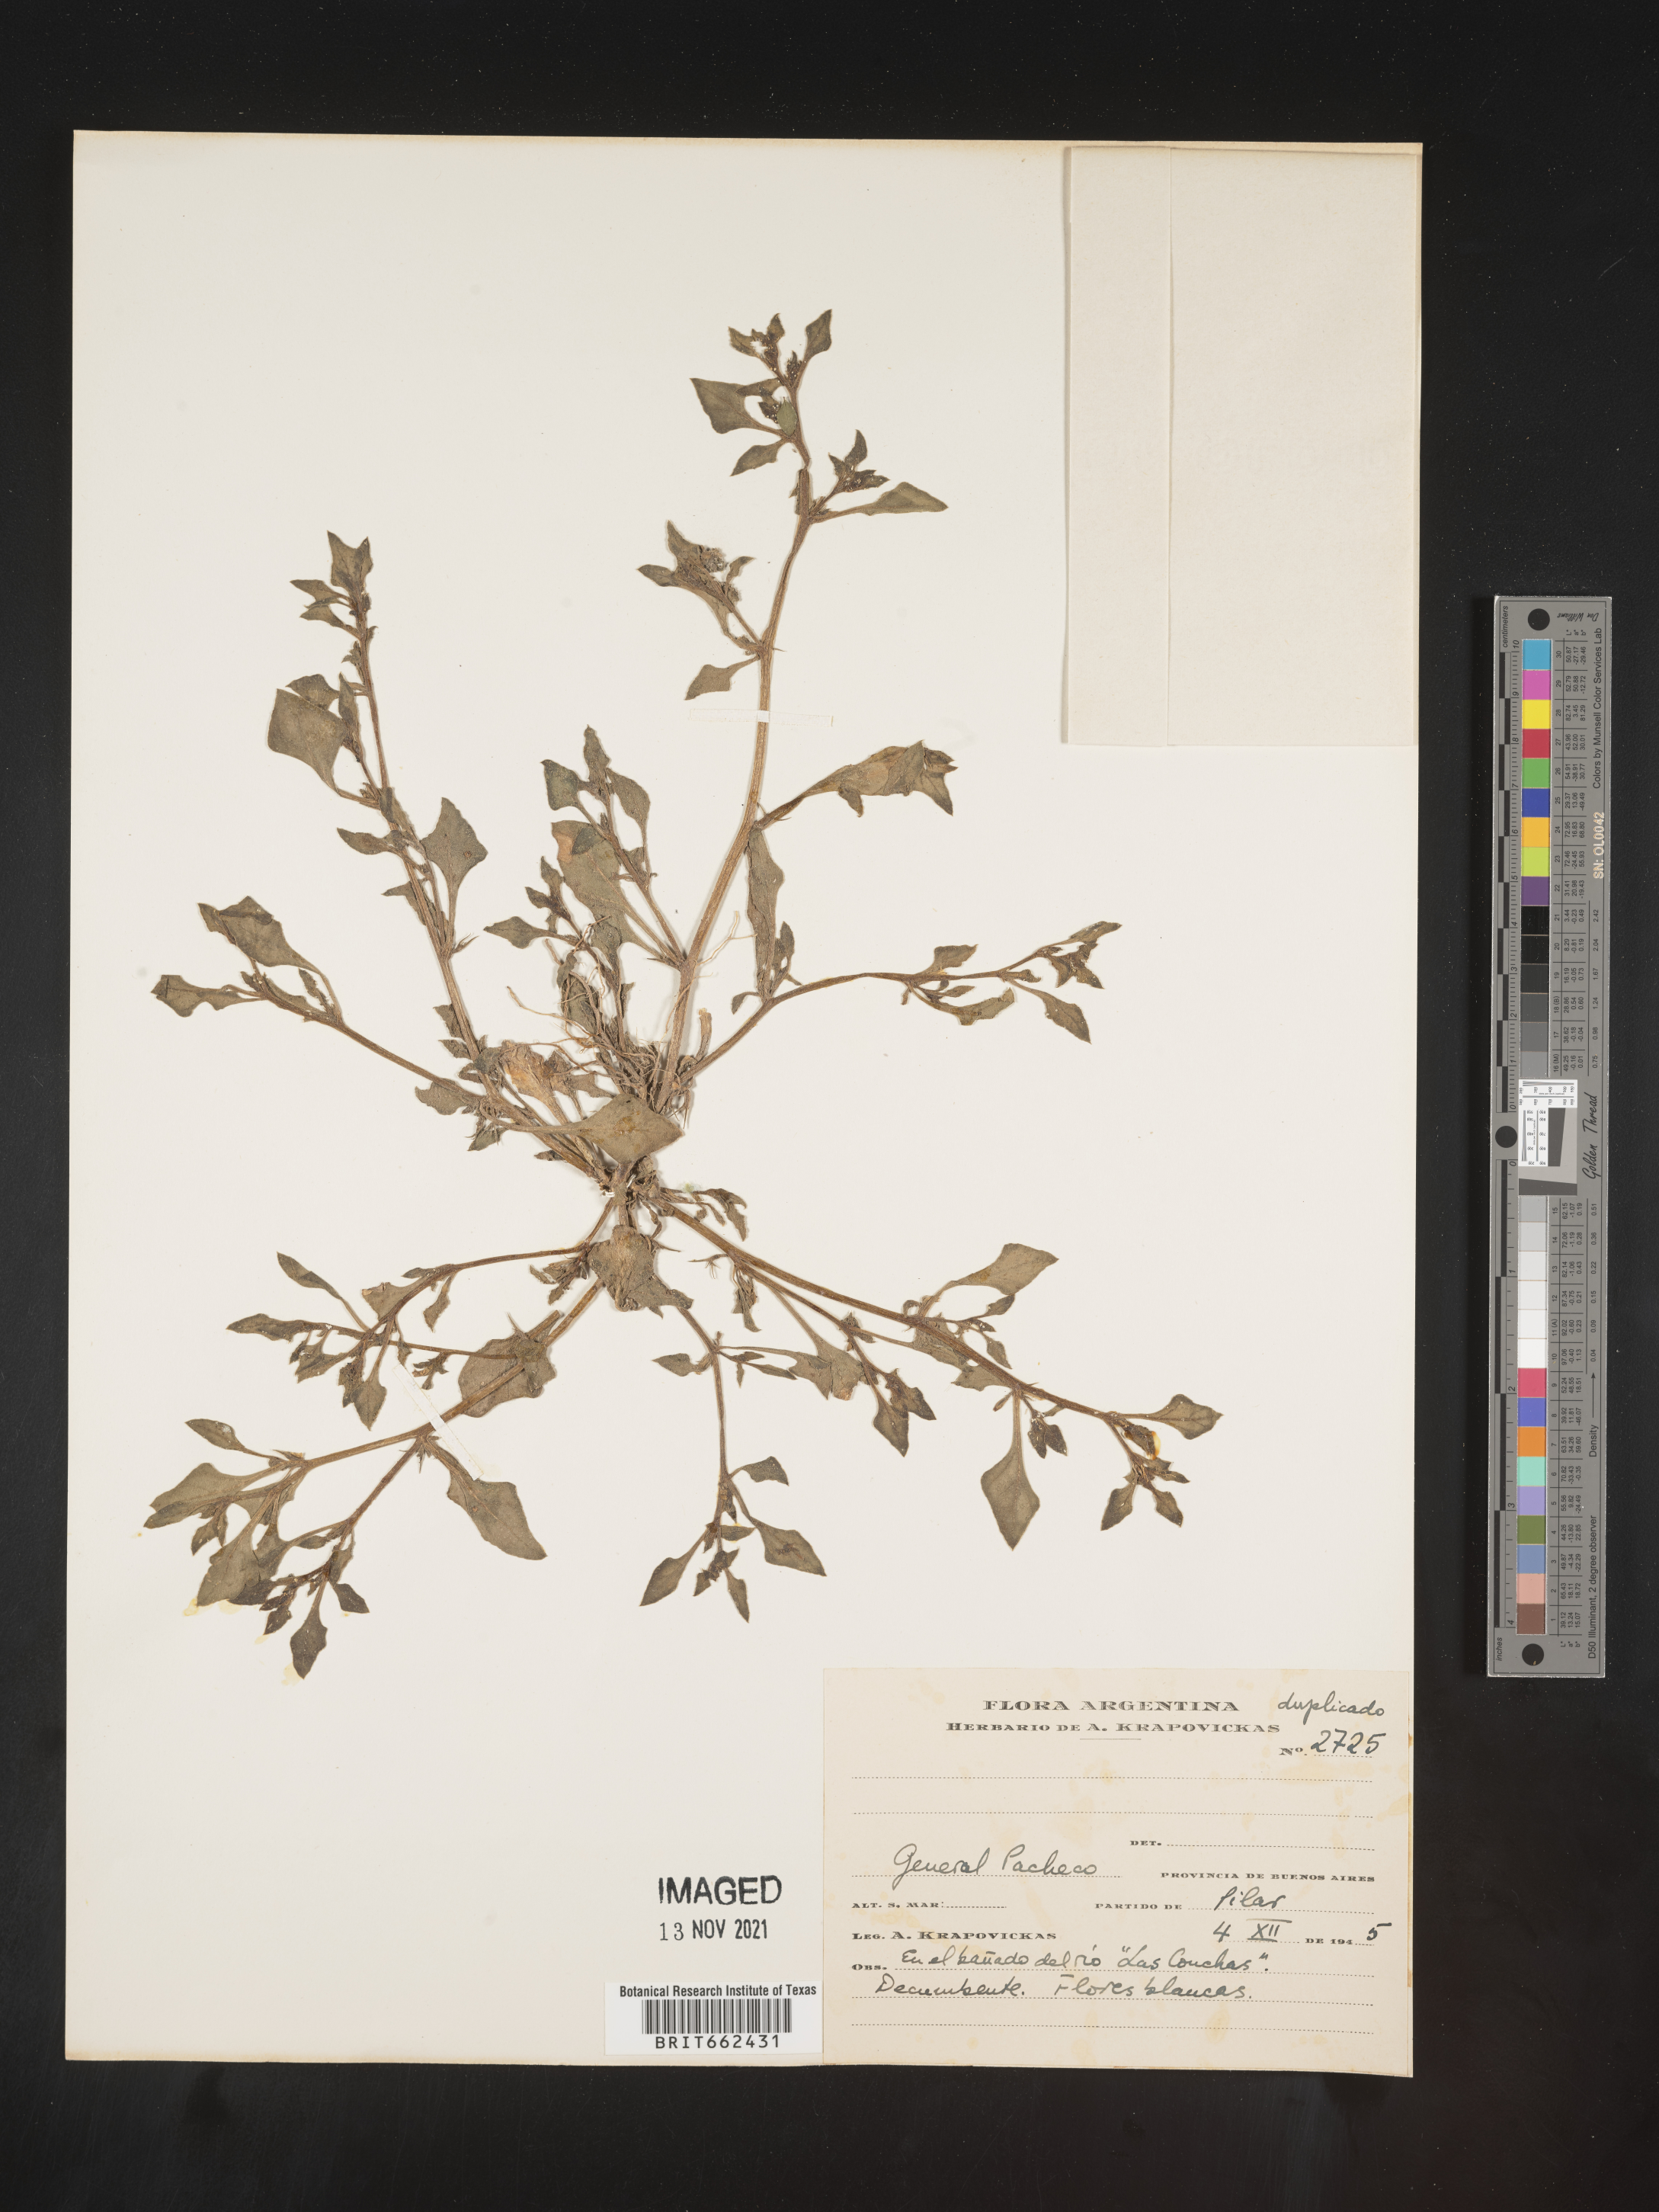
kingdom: Plantae
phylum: Tracheophyta
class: Magnoliopsida
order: Caryophyllales
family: Aizoaceae
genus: Trianthema
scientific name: Trianthema
